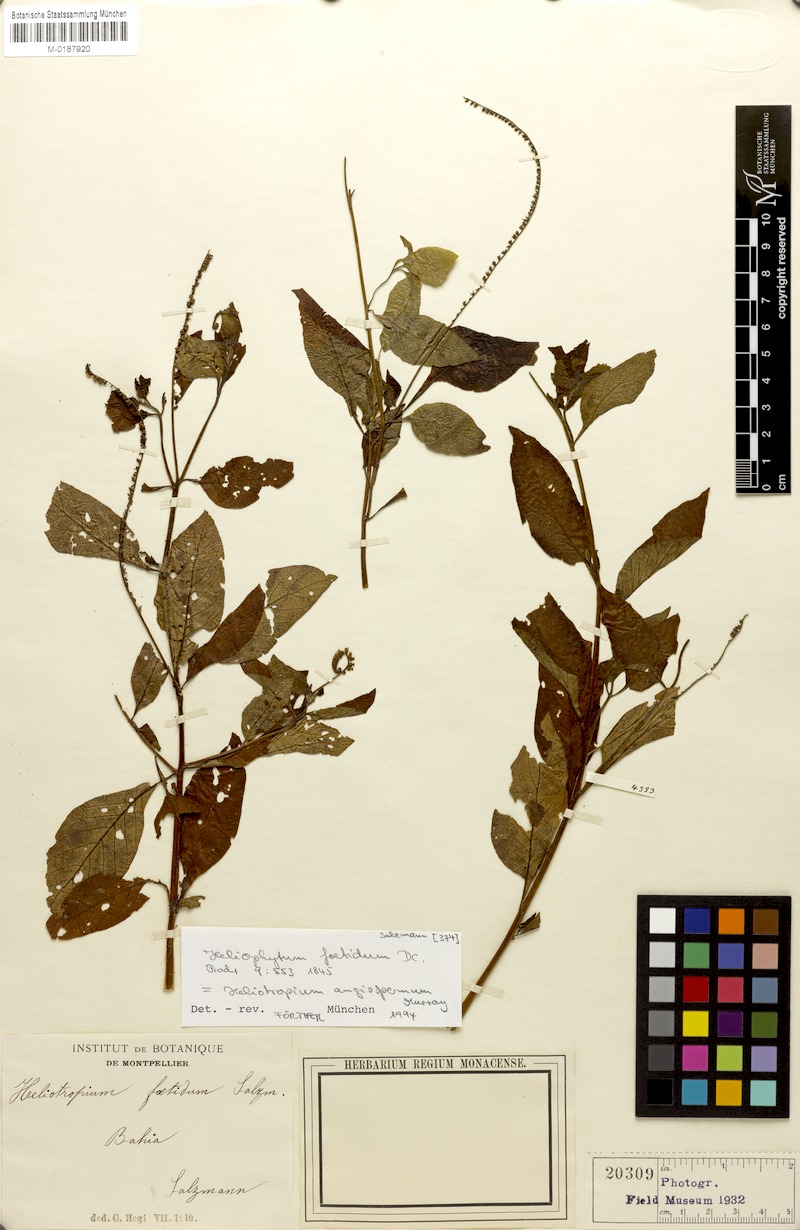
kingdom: Plantae
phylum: Tracheophyta
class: Magnoliopsida
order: Boraginales
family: Heliotropiaceae
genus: Heliotropium
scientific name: Heliotropium angiospermum
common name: Eye bright
